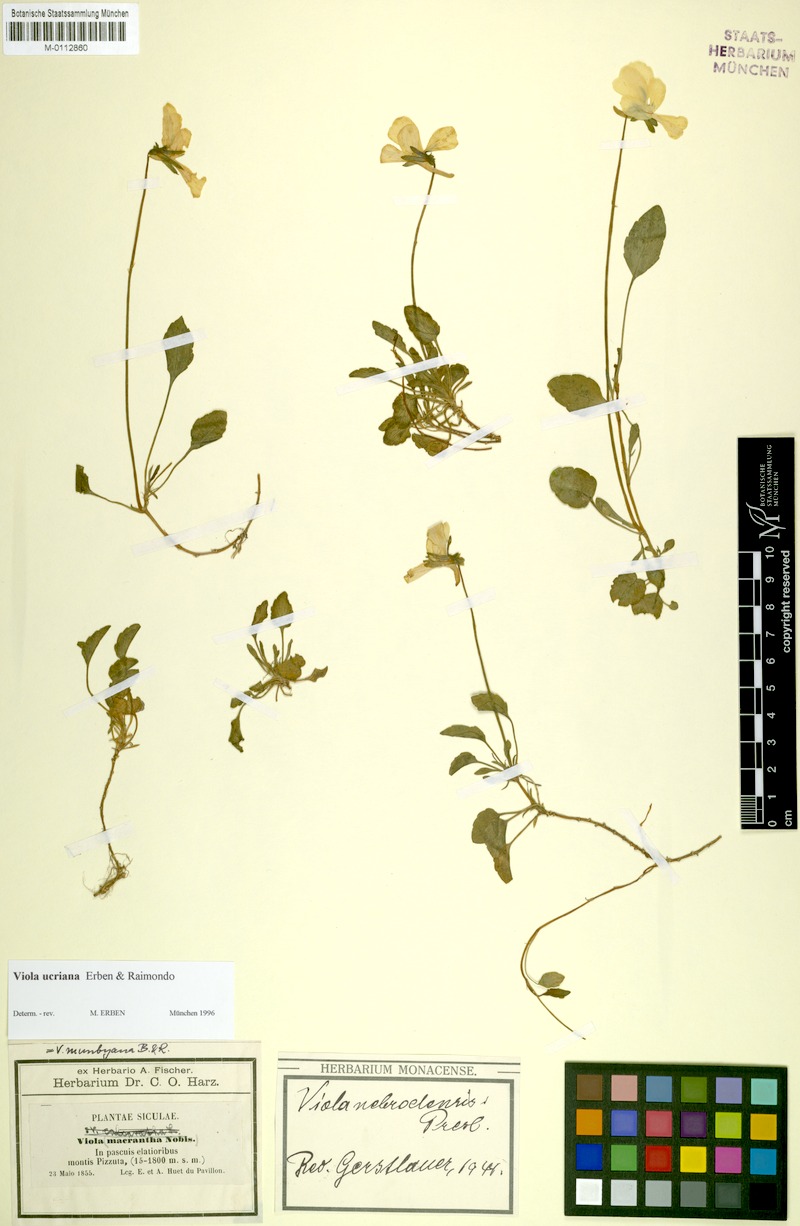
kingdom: Plantae
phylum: Tracheophyta
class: Magnoliopsida
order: Malpighiales
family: Violaceae
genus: Viola
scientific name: Viola ucriana
